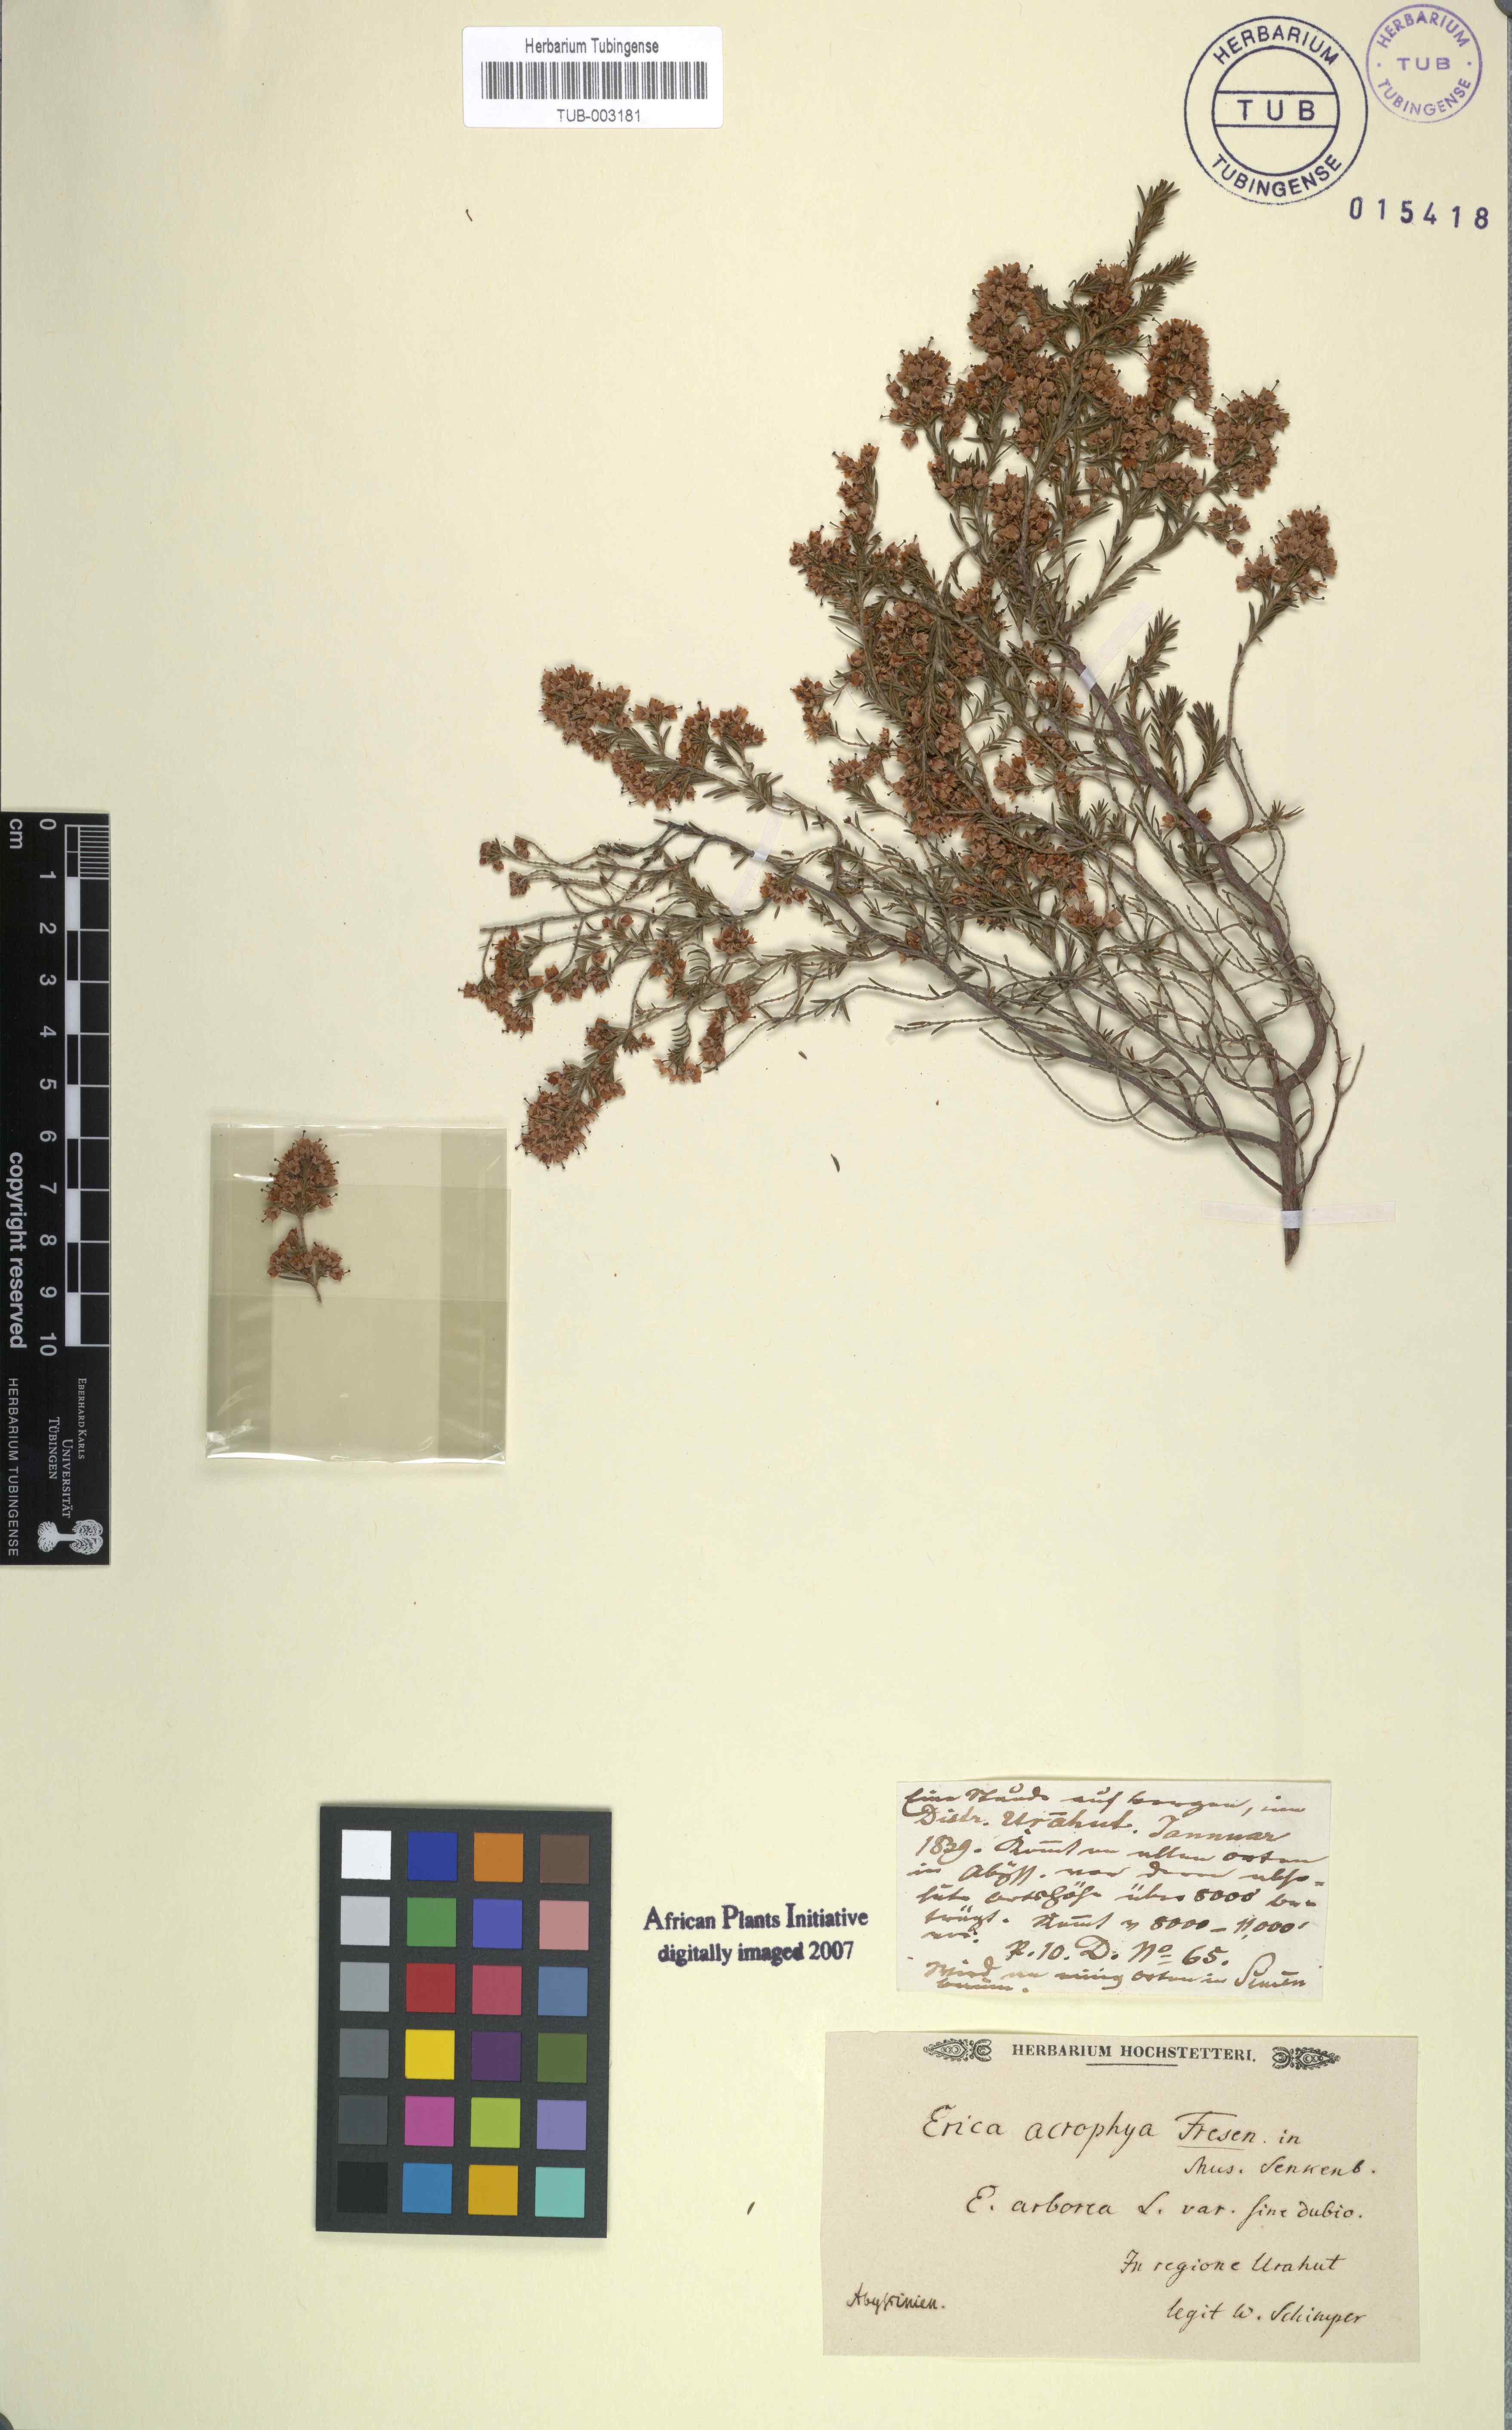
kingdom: Plantae
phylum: Tracheophyta
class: Magnoliopsida
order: Ericales
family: Ericaceae
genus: Erica
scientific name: Erica arborea
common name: Tree heath
